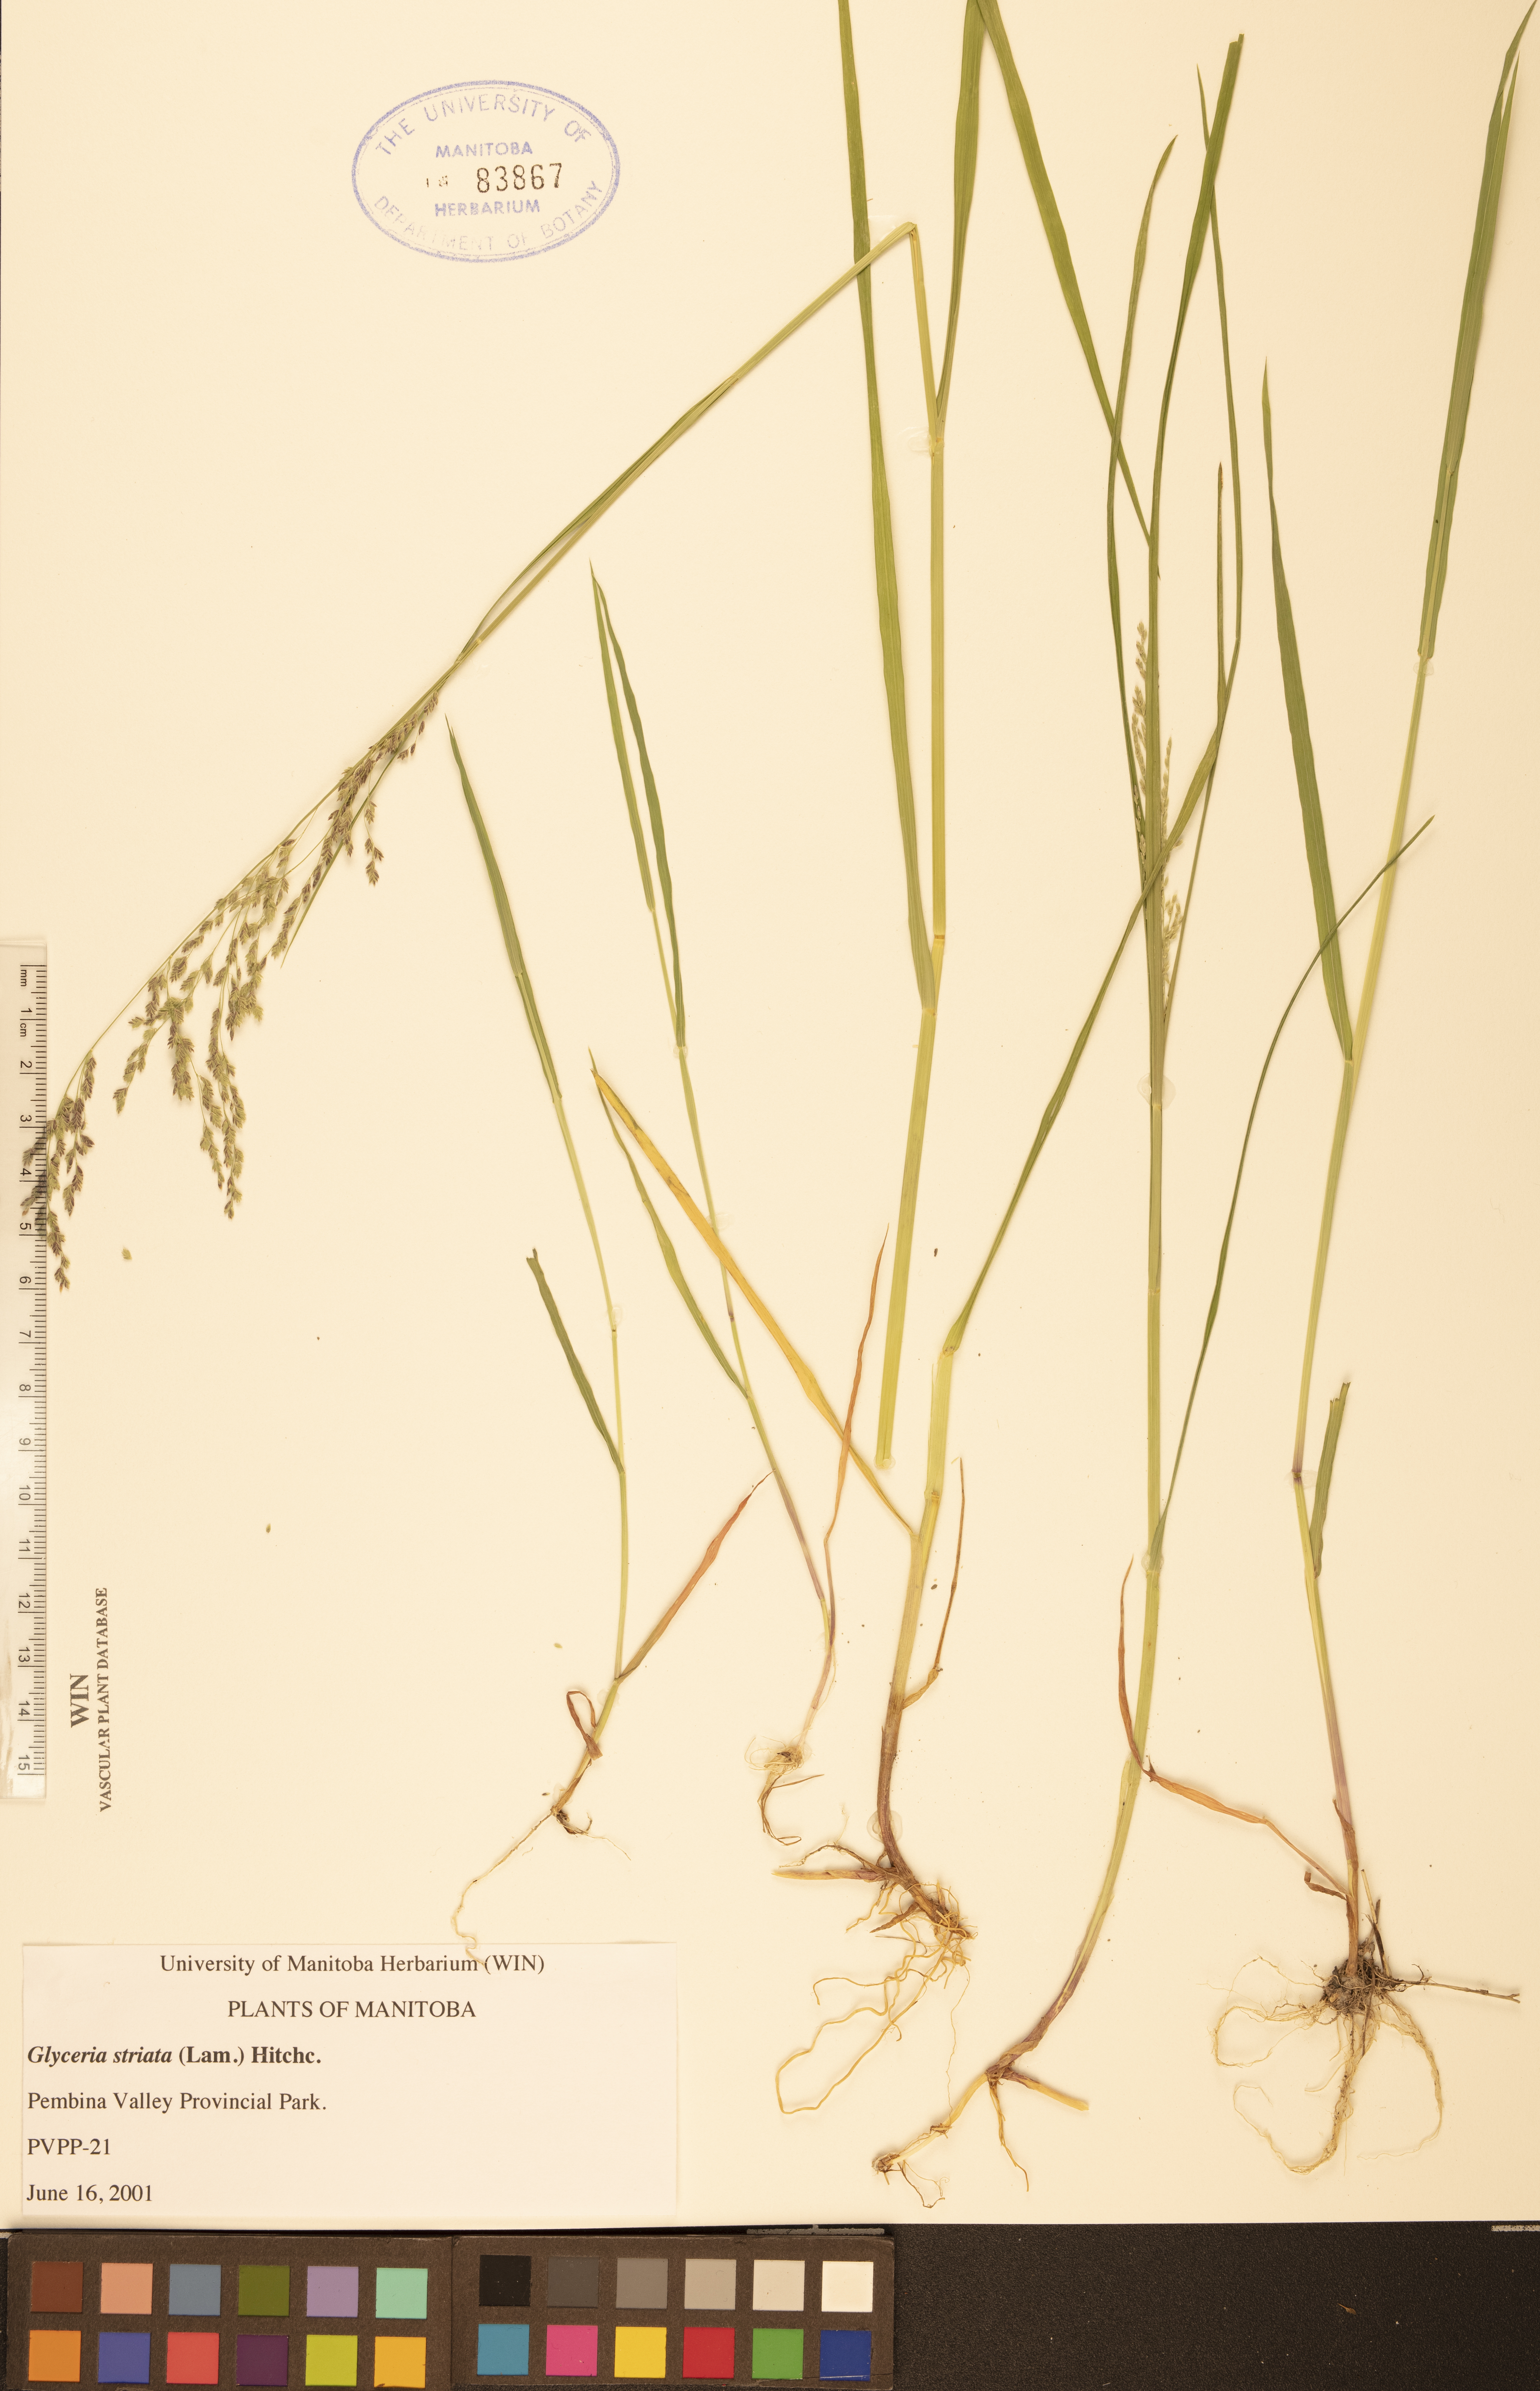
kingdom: Plantae
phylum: Tracheophyta
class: Liliopsida
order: Poales
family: Poaceae
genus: Glyceria
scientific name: Glyceria striata
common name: Fowl manna grass
